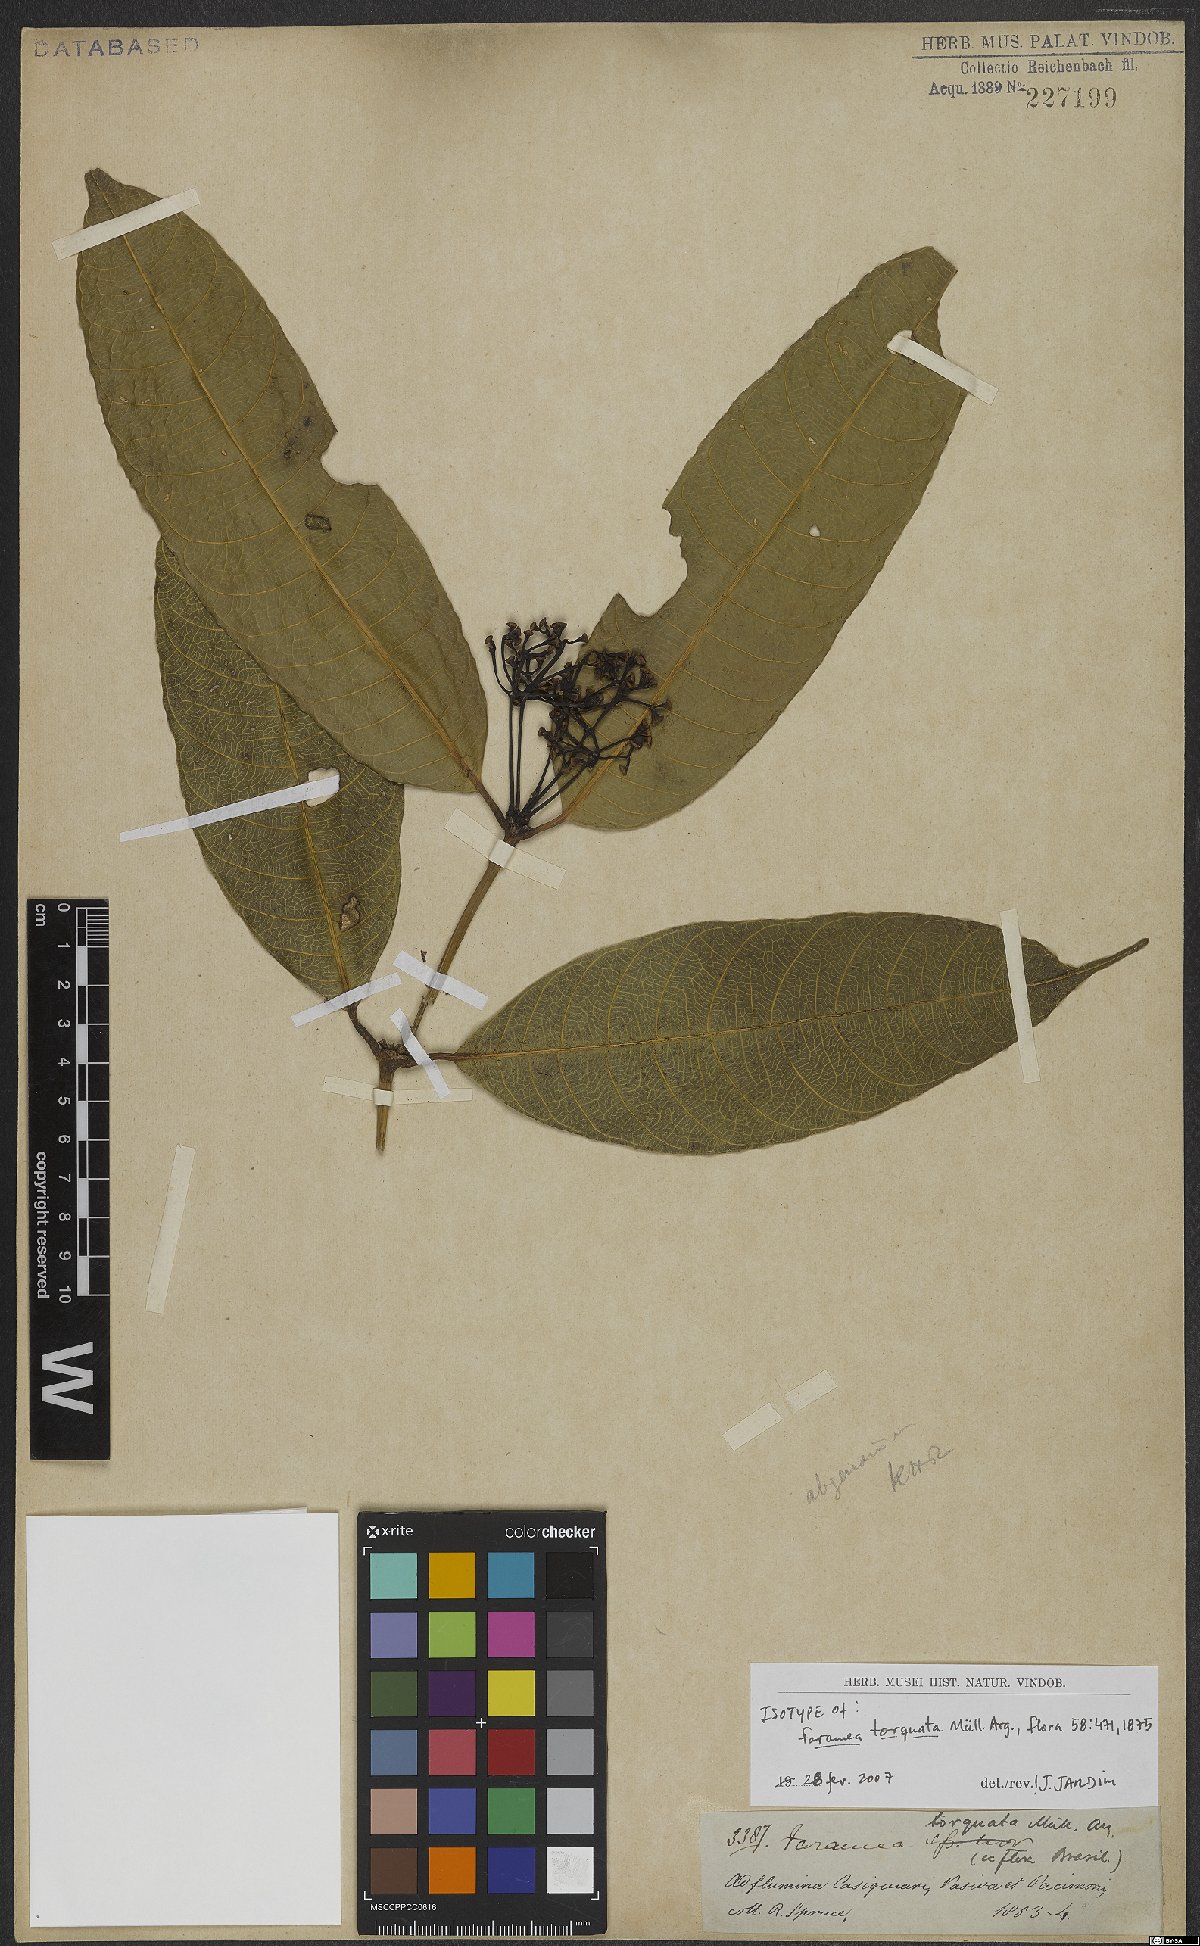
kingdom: Plantae
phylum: Tracheophyta
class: Magnoliopsida
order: Gentianales
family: Rubiaceae
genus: Faramea
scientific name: Faramea torquata
